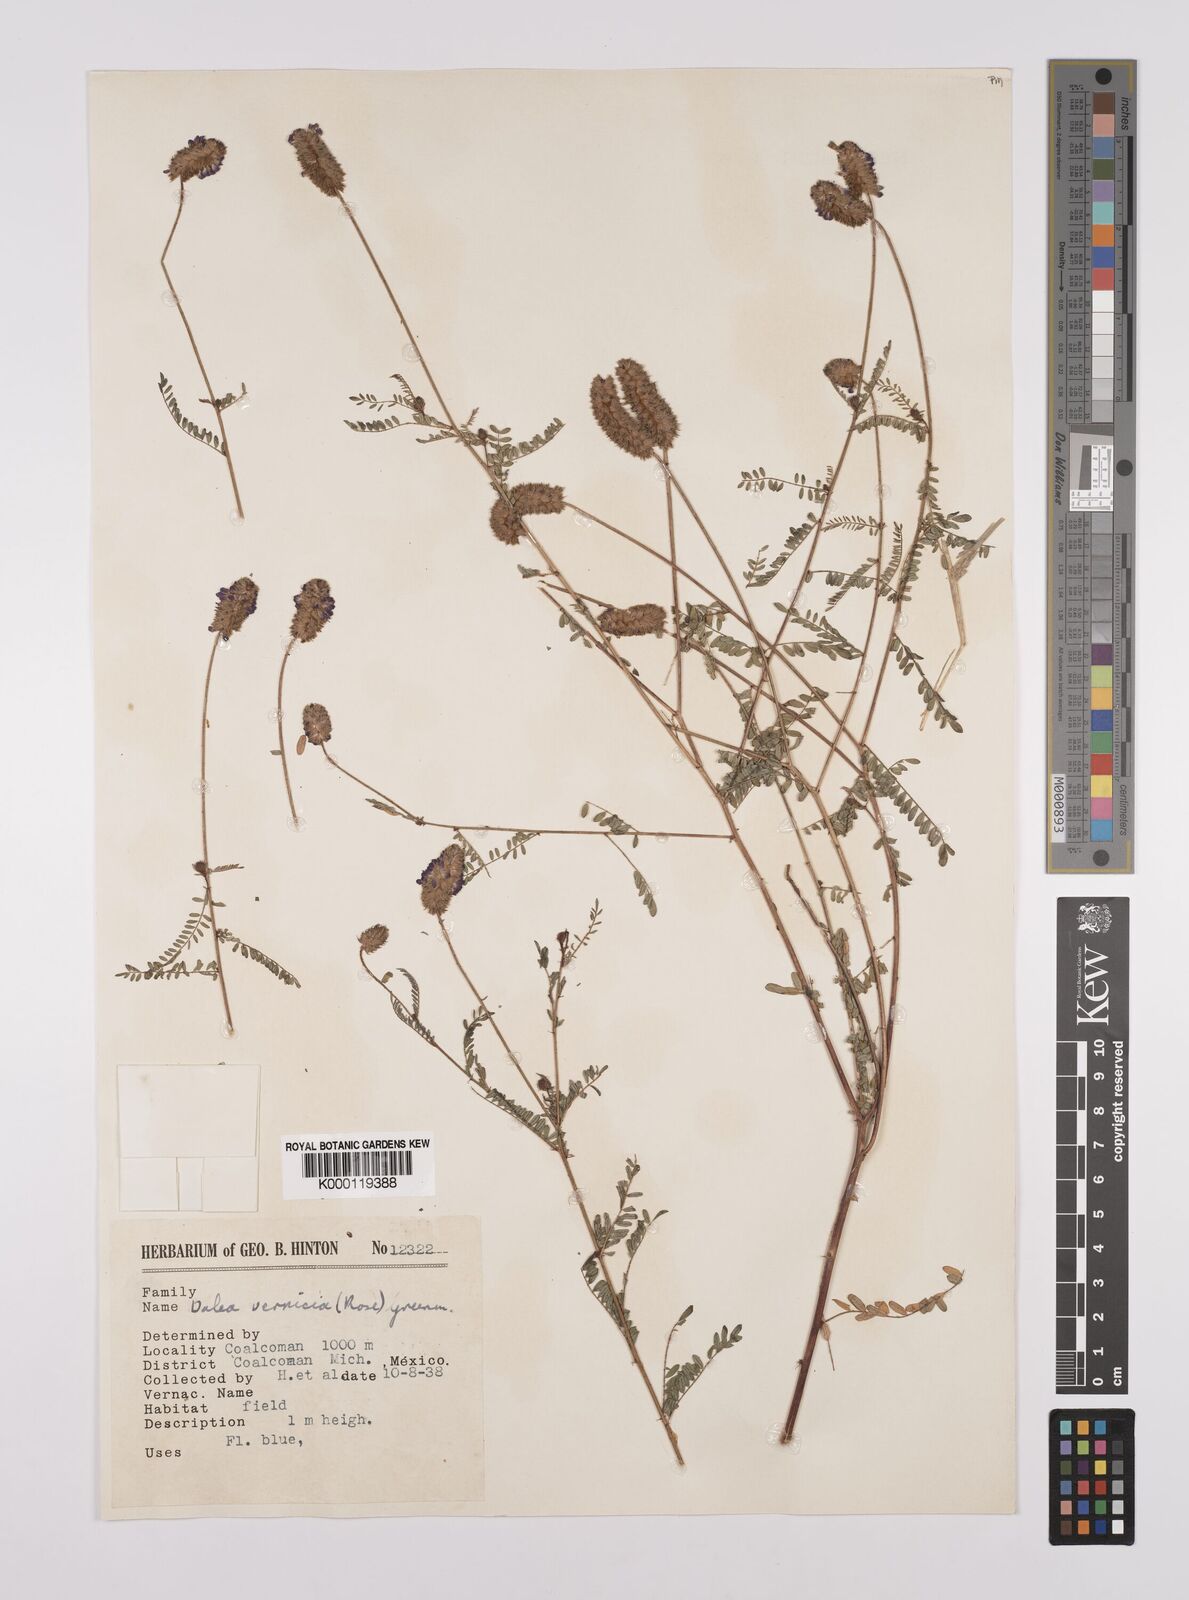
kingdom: Plantae
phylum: Tracheophyta
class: Magnoliopsida
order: Fabales
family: Fabaceae
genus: Dalea
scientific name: Dalea foliolosa
